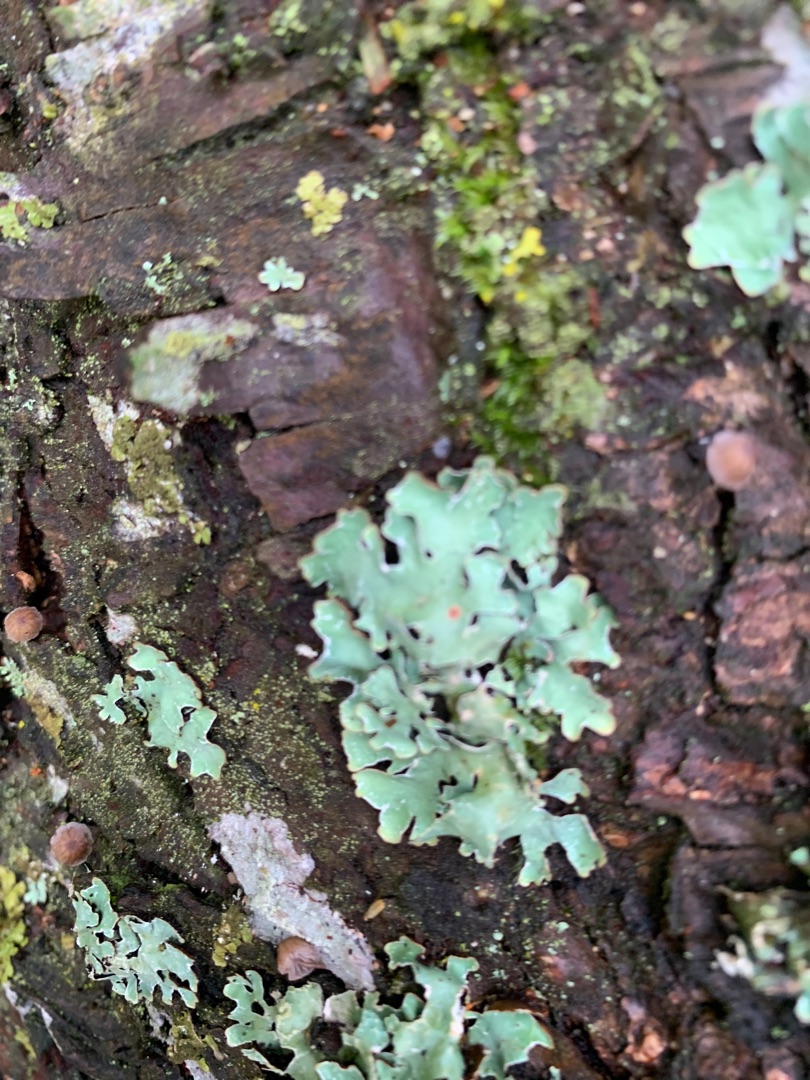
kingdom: Fungi
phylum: Ascomycota
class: Lecanoromycetes
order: Lecanorales
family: Parmeliaceae
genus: Parmelia
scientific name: Parmelia sulcata
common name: Rynket skållav
